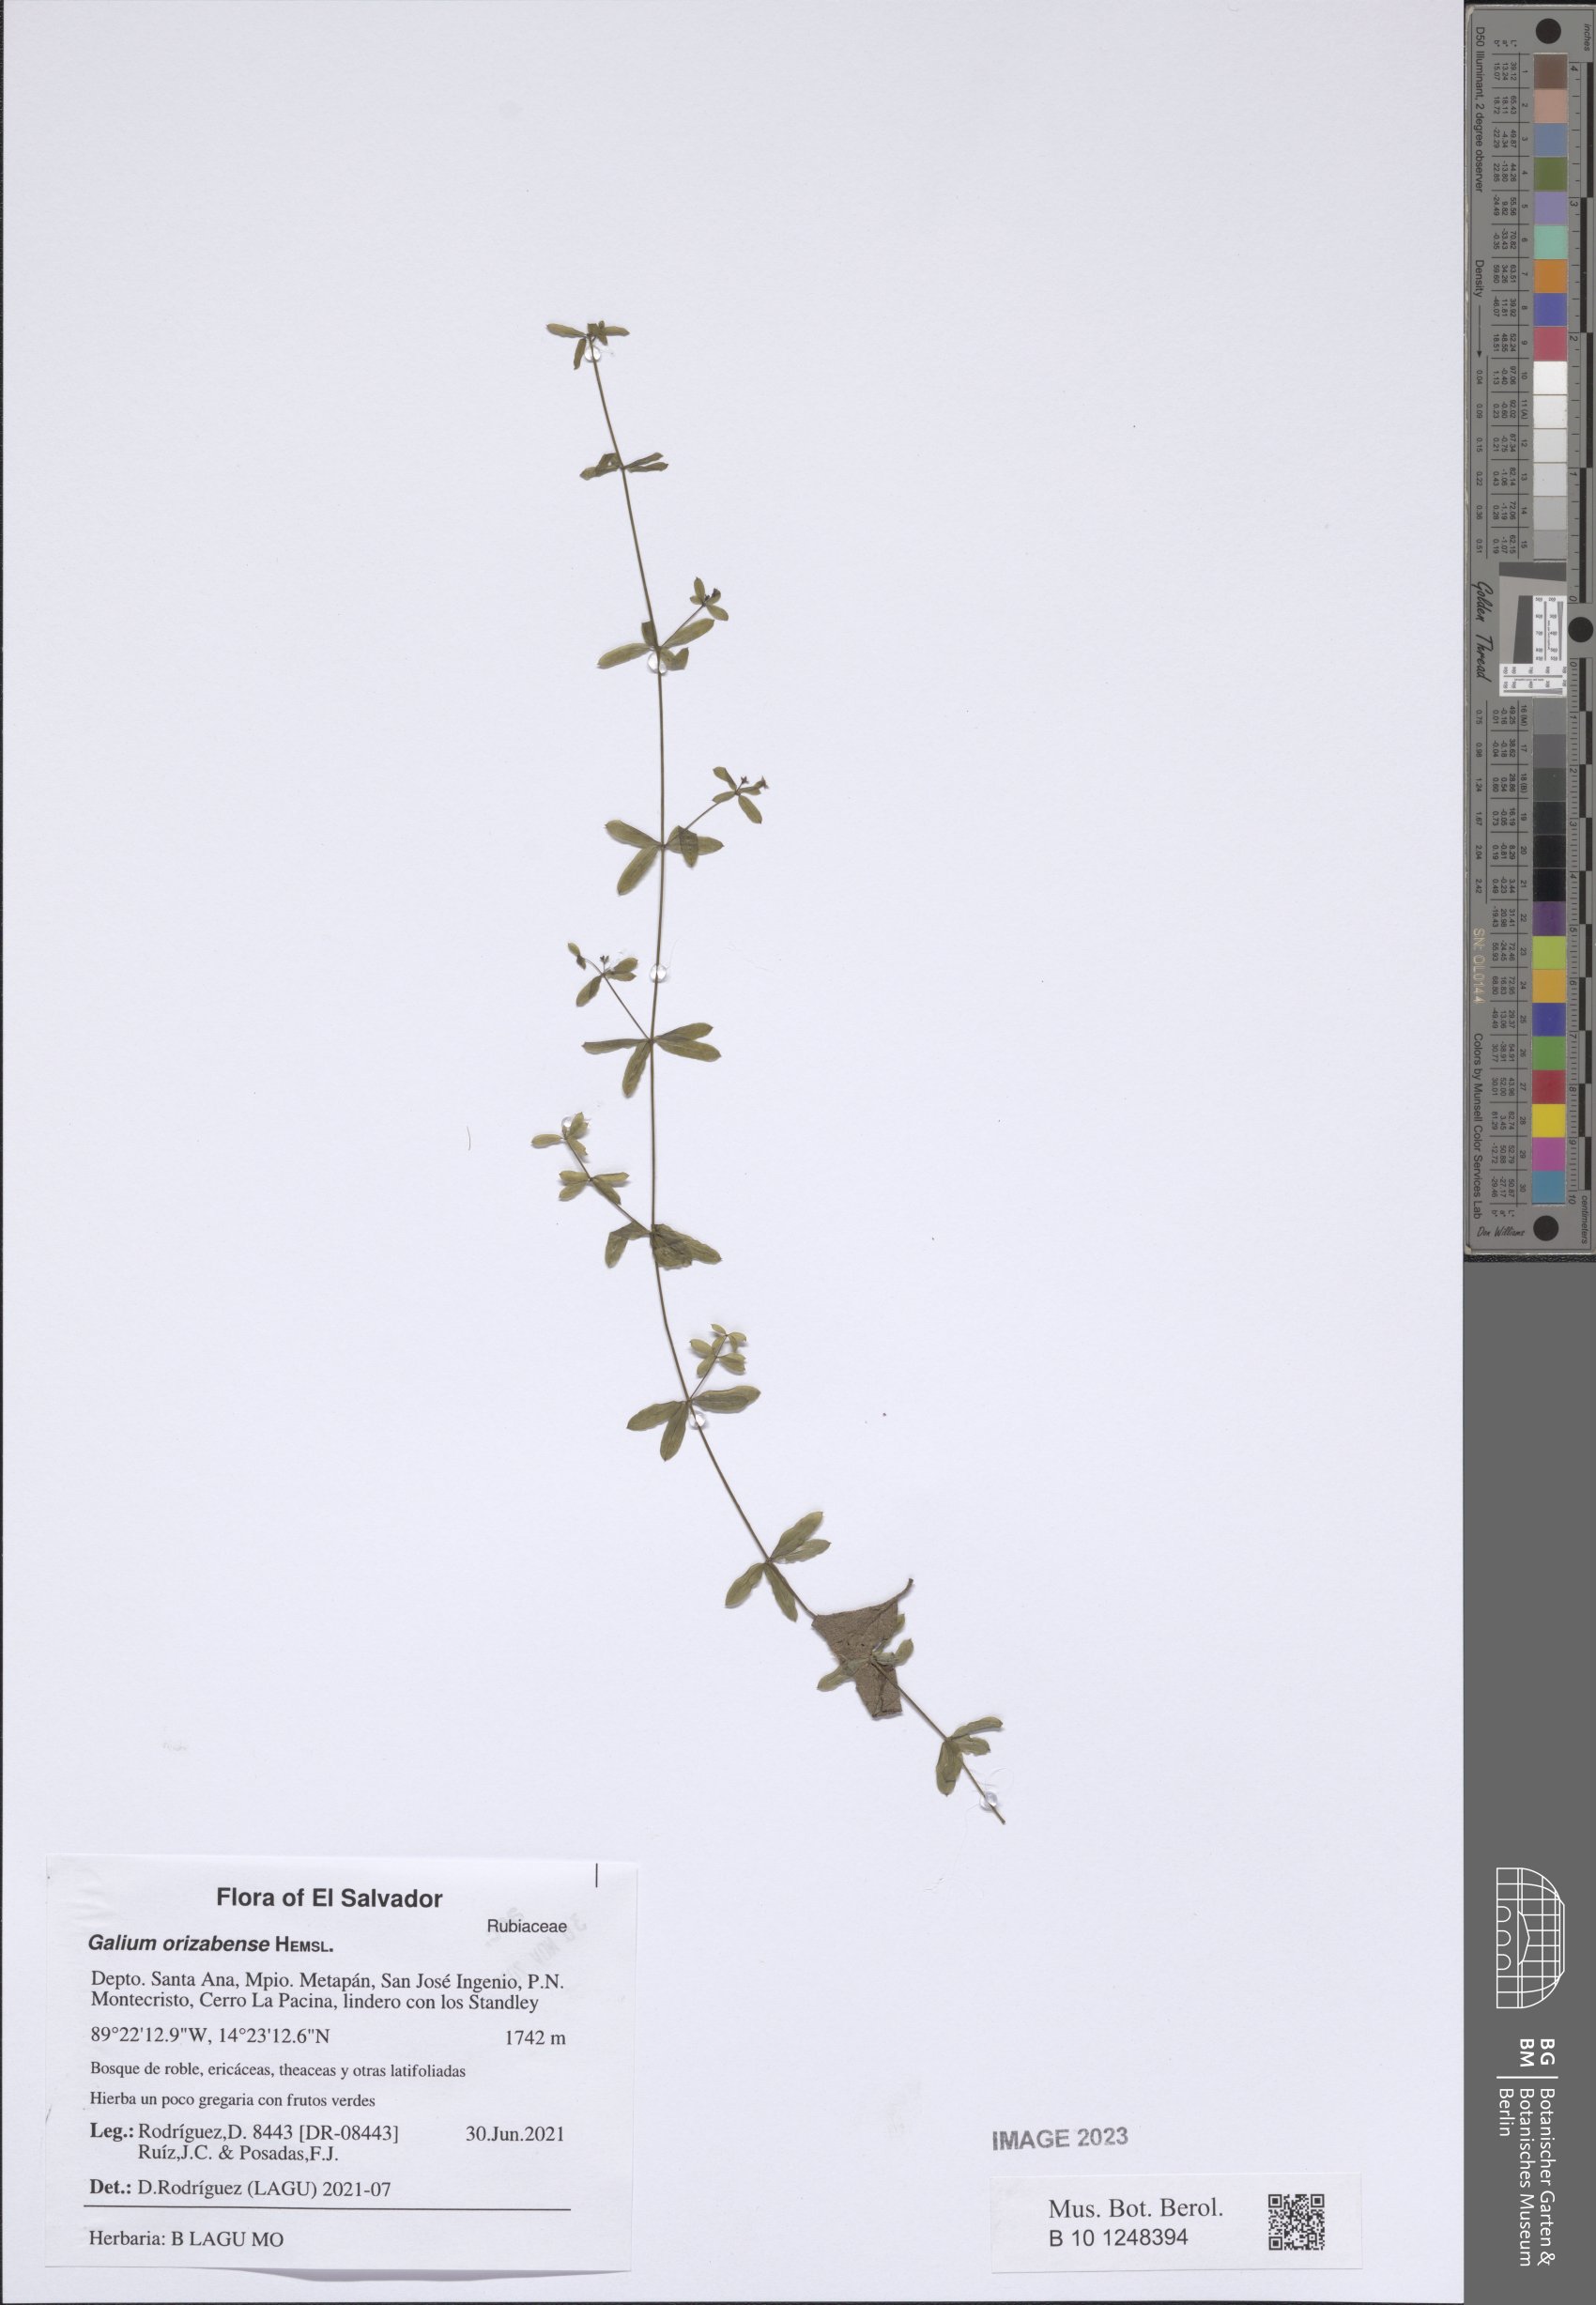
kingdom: Plantae
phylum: Tracheophyta
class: Magnoliopsida
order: Gentianales
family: Rubiaceae
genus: Galium
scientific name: Galium aschenbornii
